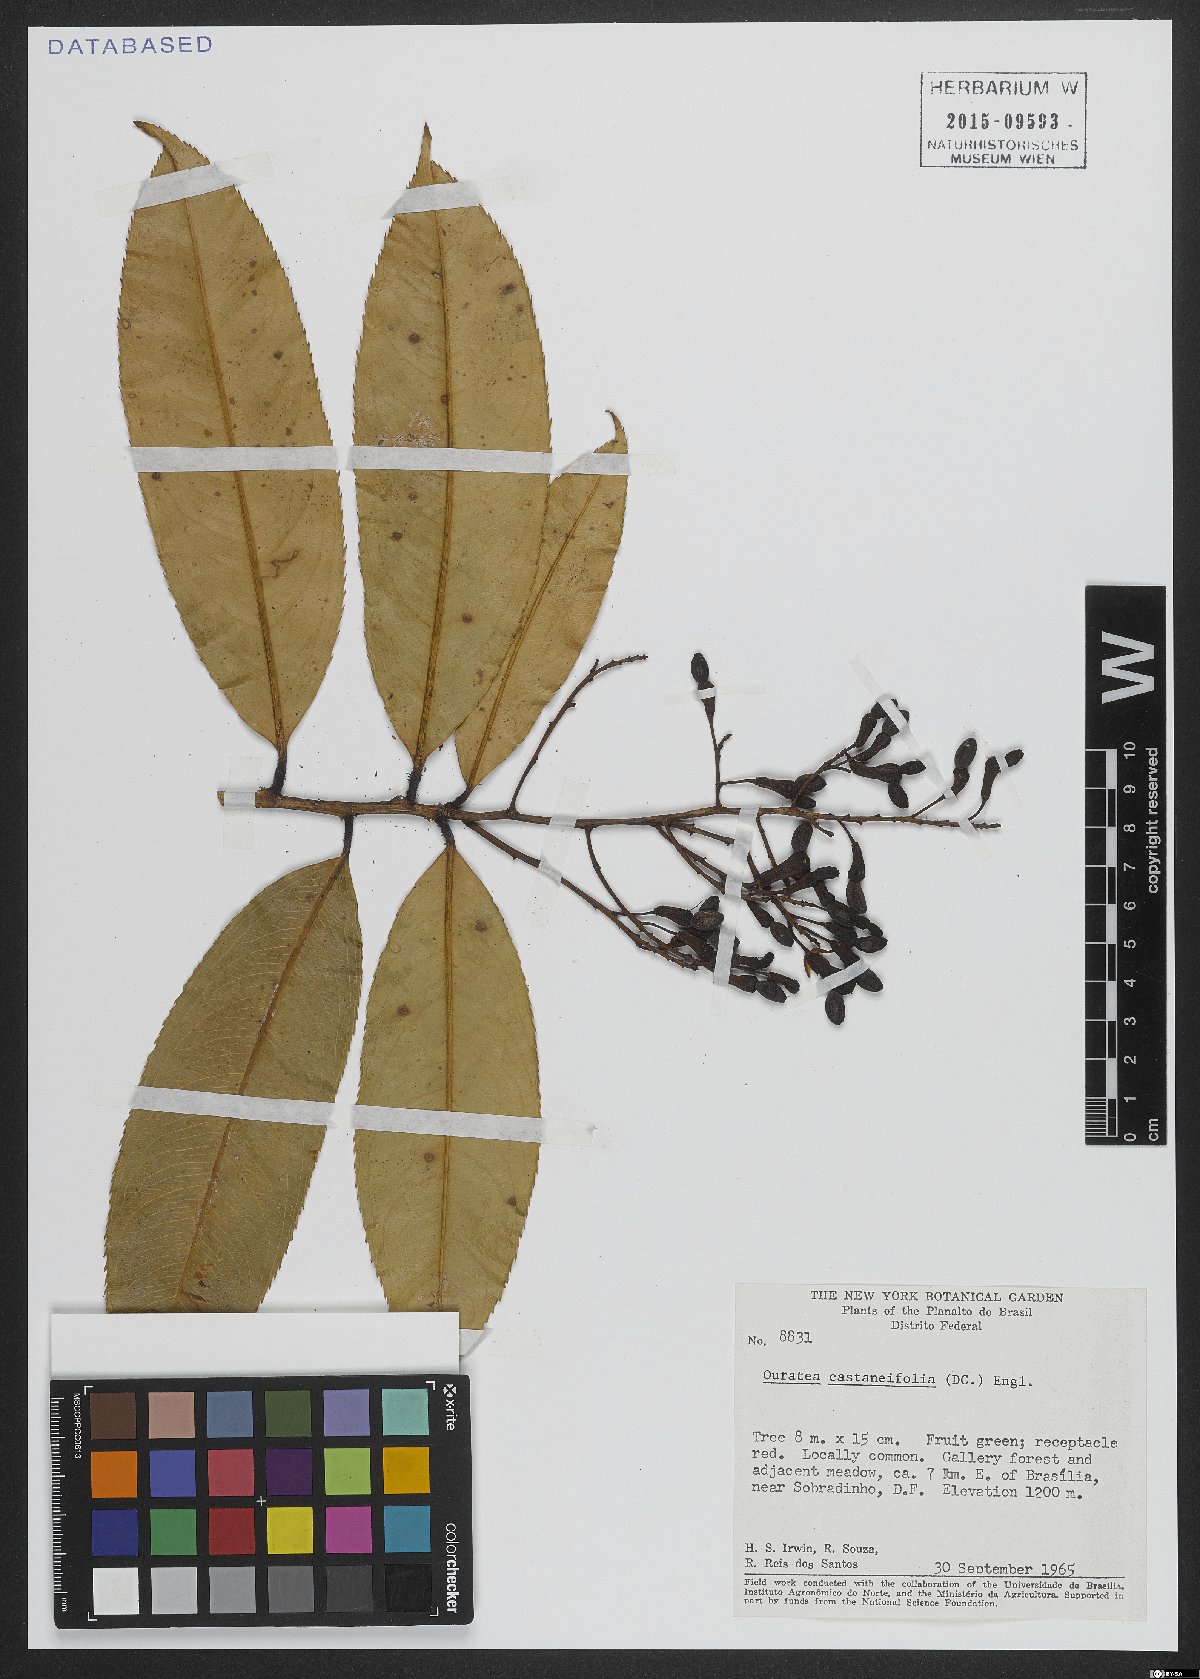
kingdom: Plantae
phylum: Tracheophyta
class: Magnoliopsida
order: Malpighiales
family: Ochnaceae
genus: Ouratea
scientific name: Ouratea castaneifolia
